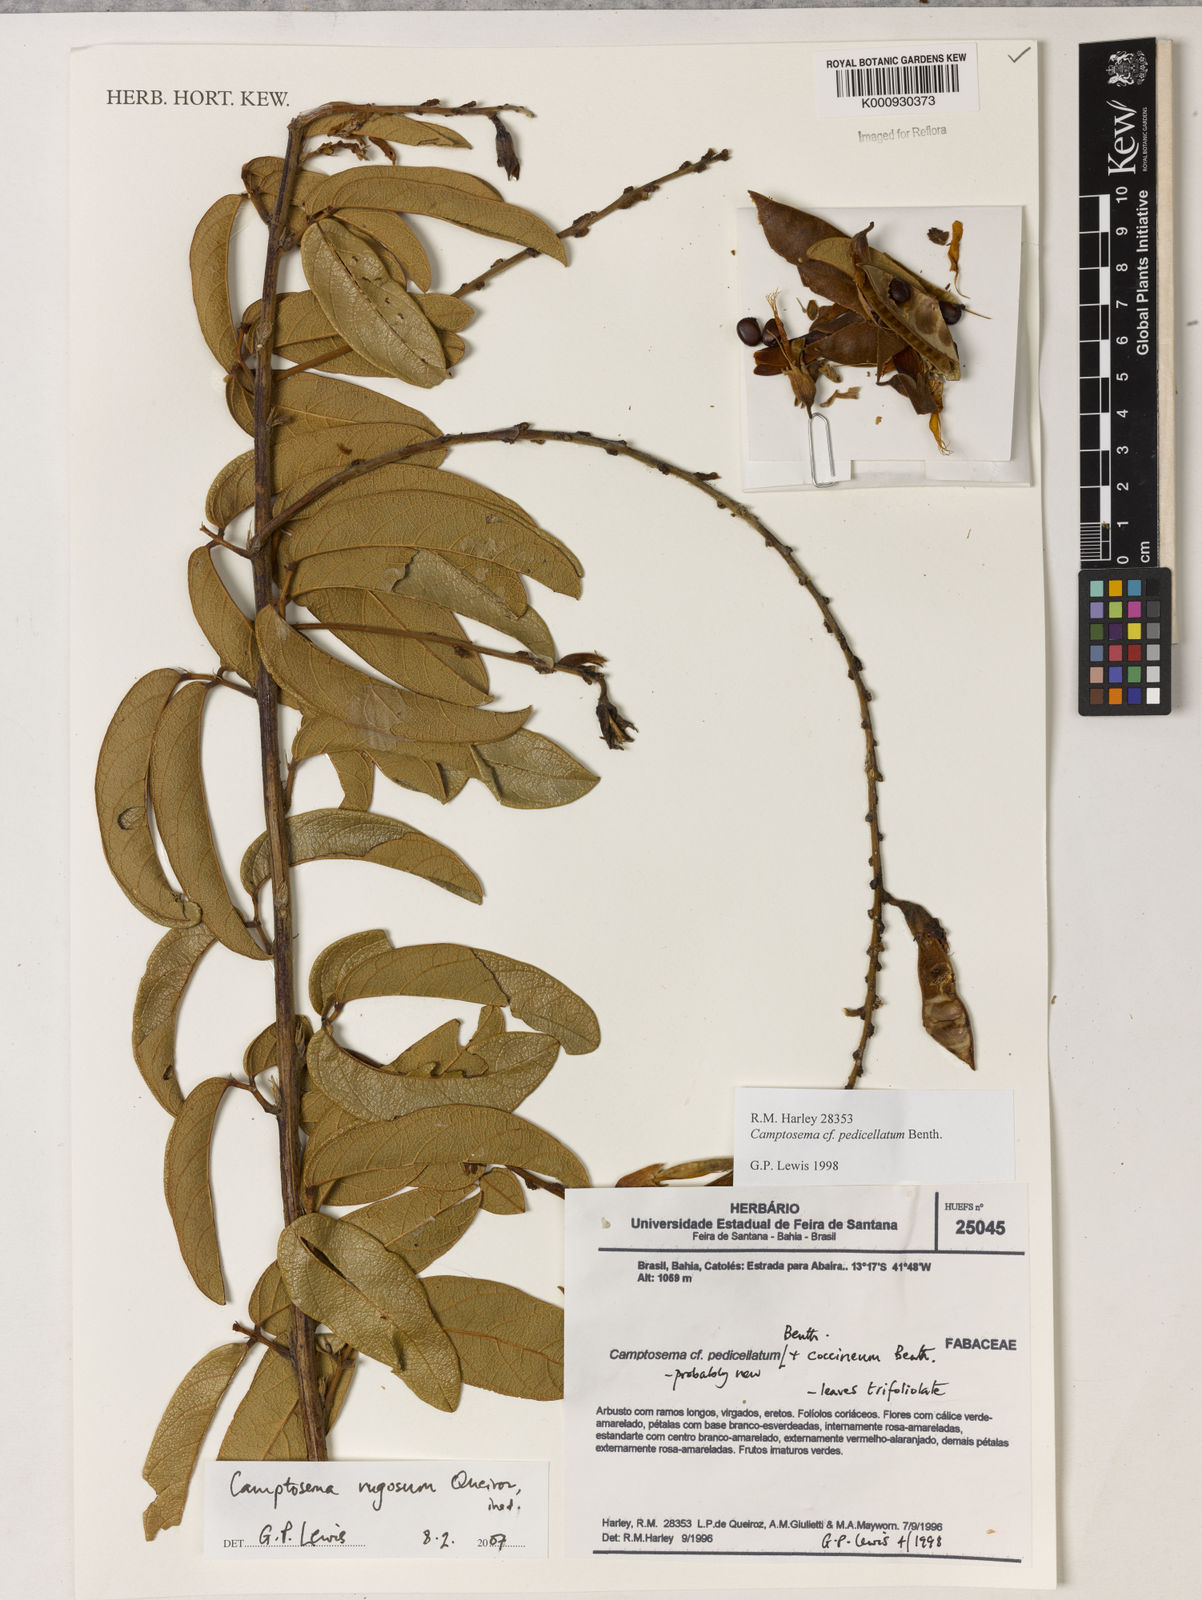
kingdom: Plantae
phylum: Tracheophyta
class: Magnoliopsida
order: Fabales
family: Fabaceae
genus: Camptosema
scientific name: Camptosema
